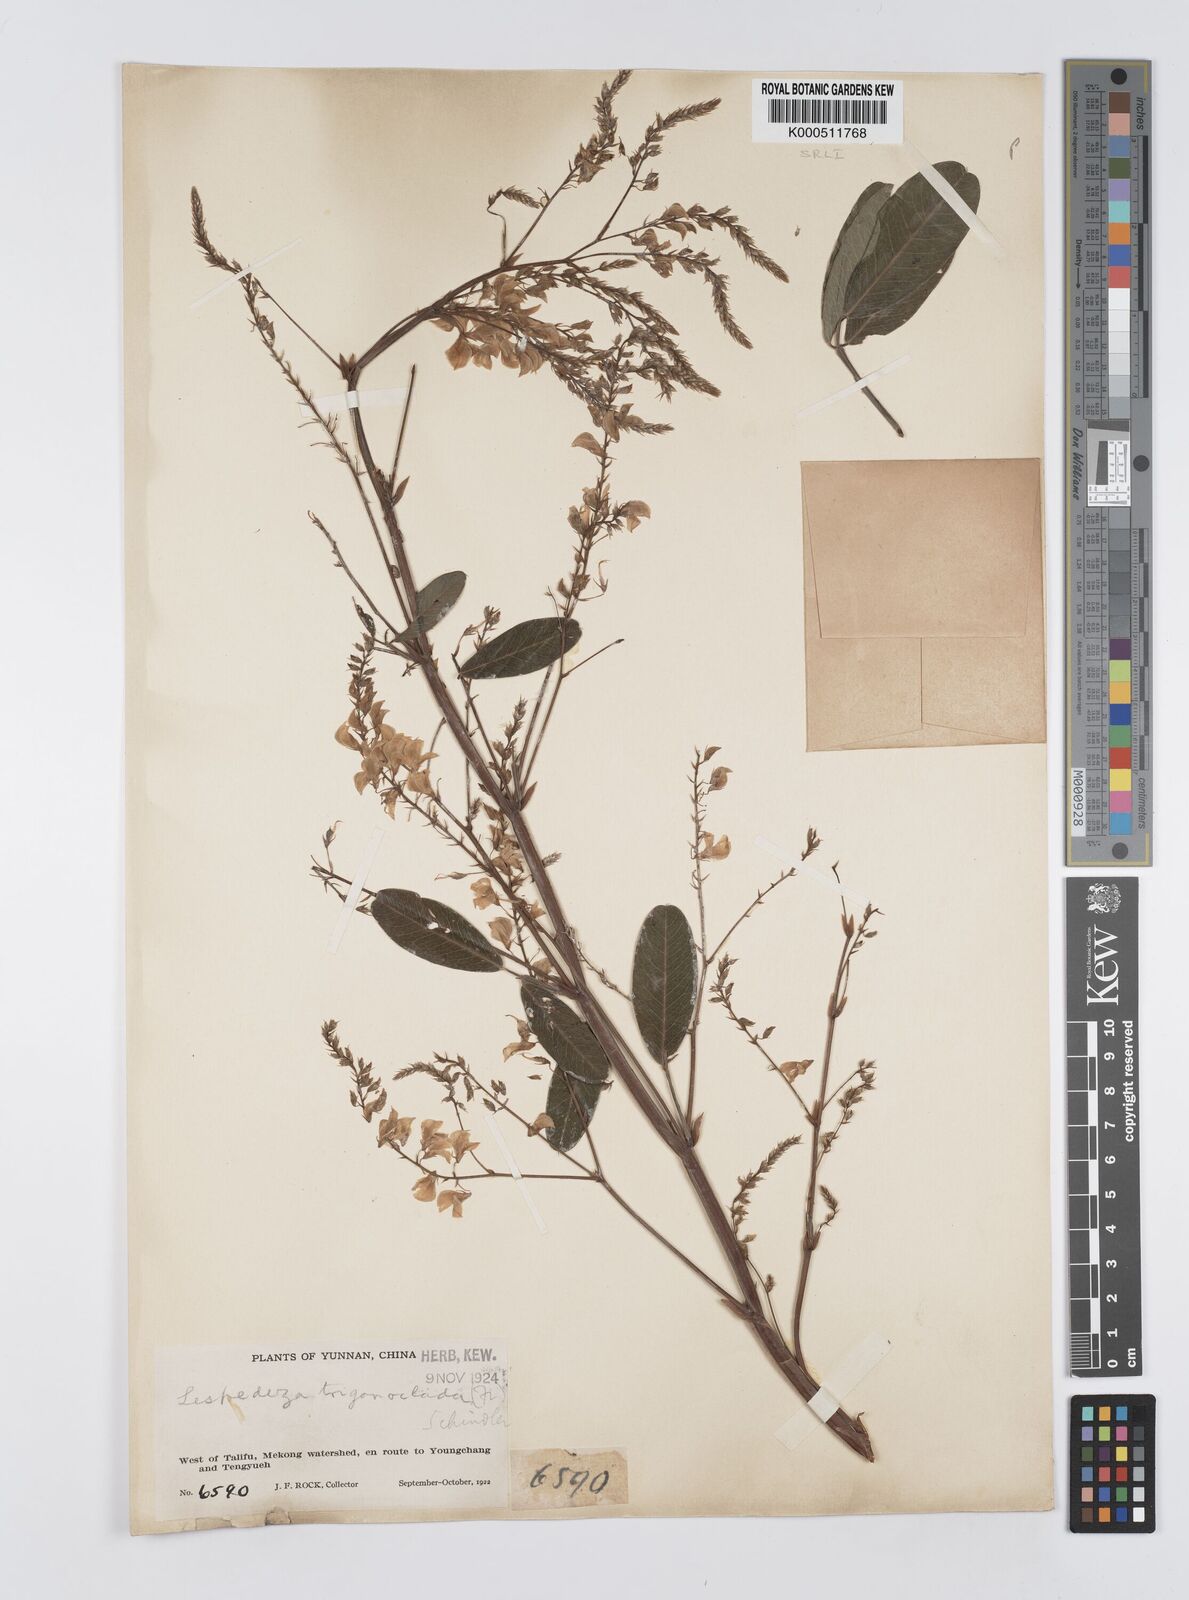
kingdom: Plantae
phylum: Tracheophyta
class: Magnoliopsida
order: Fabales
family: Fabaceae
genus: Campylotropis
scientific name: Campylotropis trigonoclada
